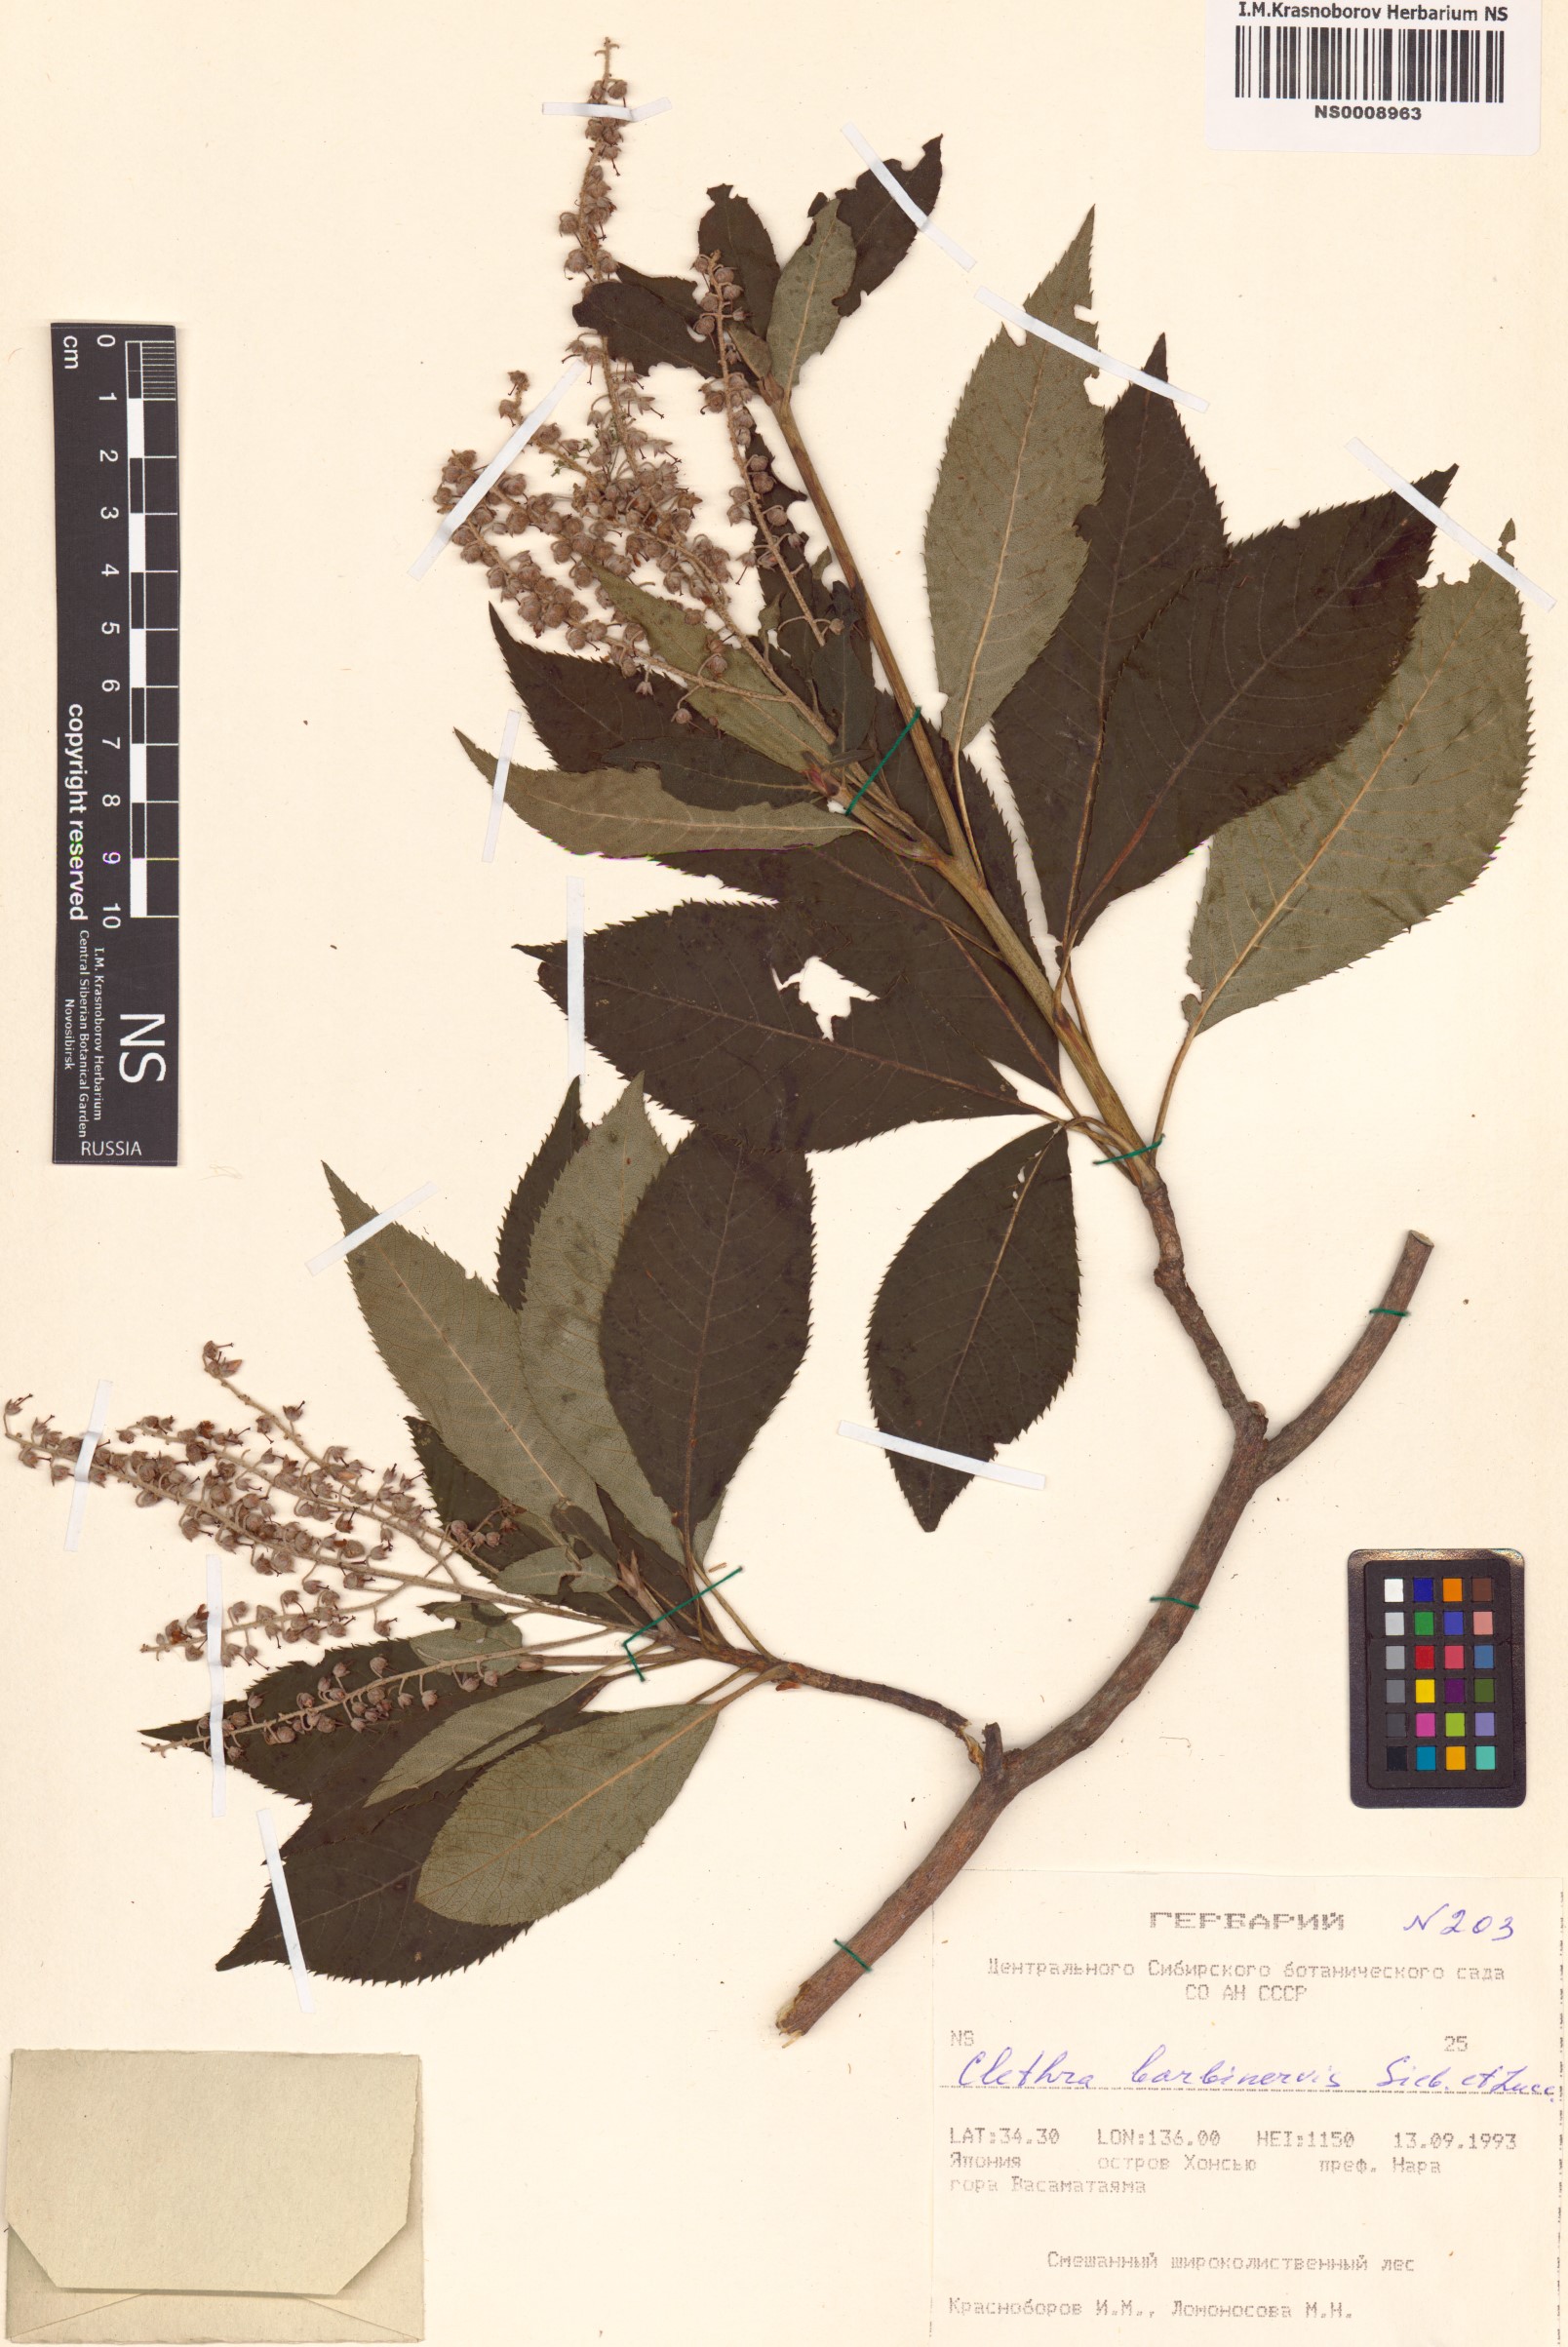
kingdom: Plantae
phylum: Tracheophyta
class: Magnoliopsida
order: Ericales
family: Clethraceae
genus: Clethra
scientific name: Clethra barbinervis
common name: Japanese clethra
